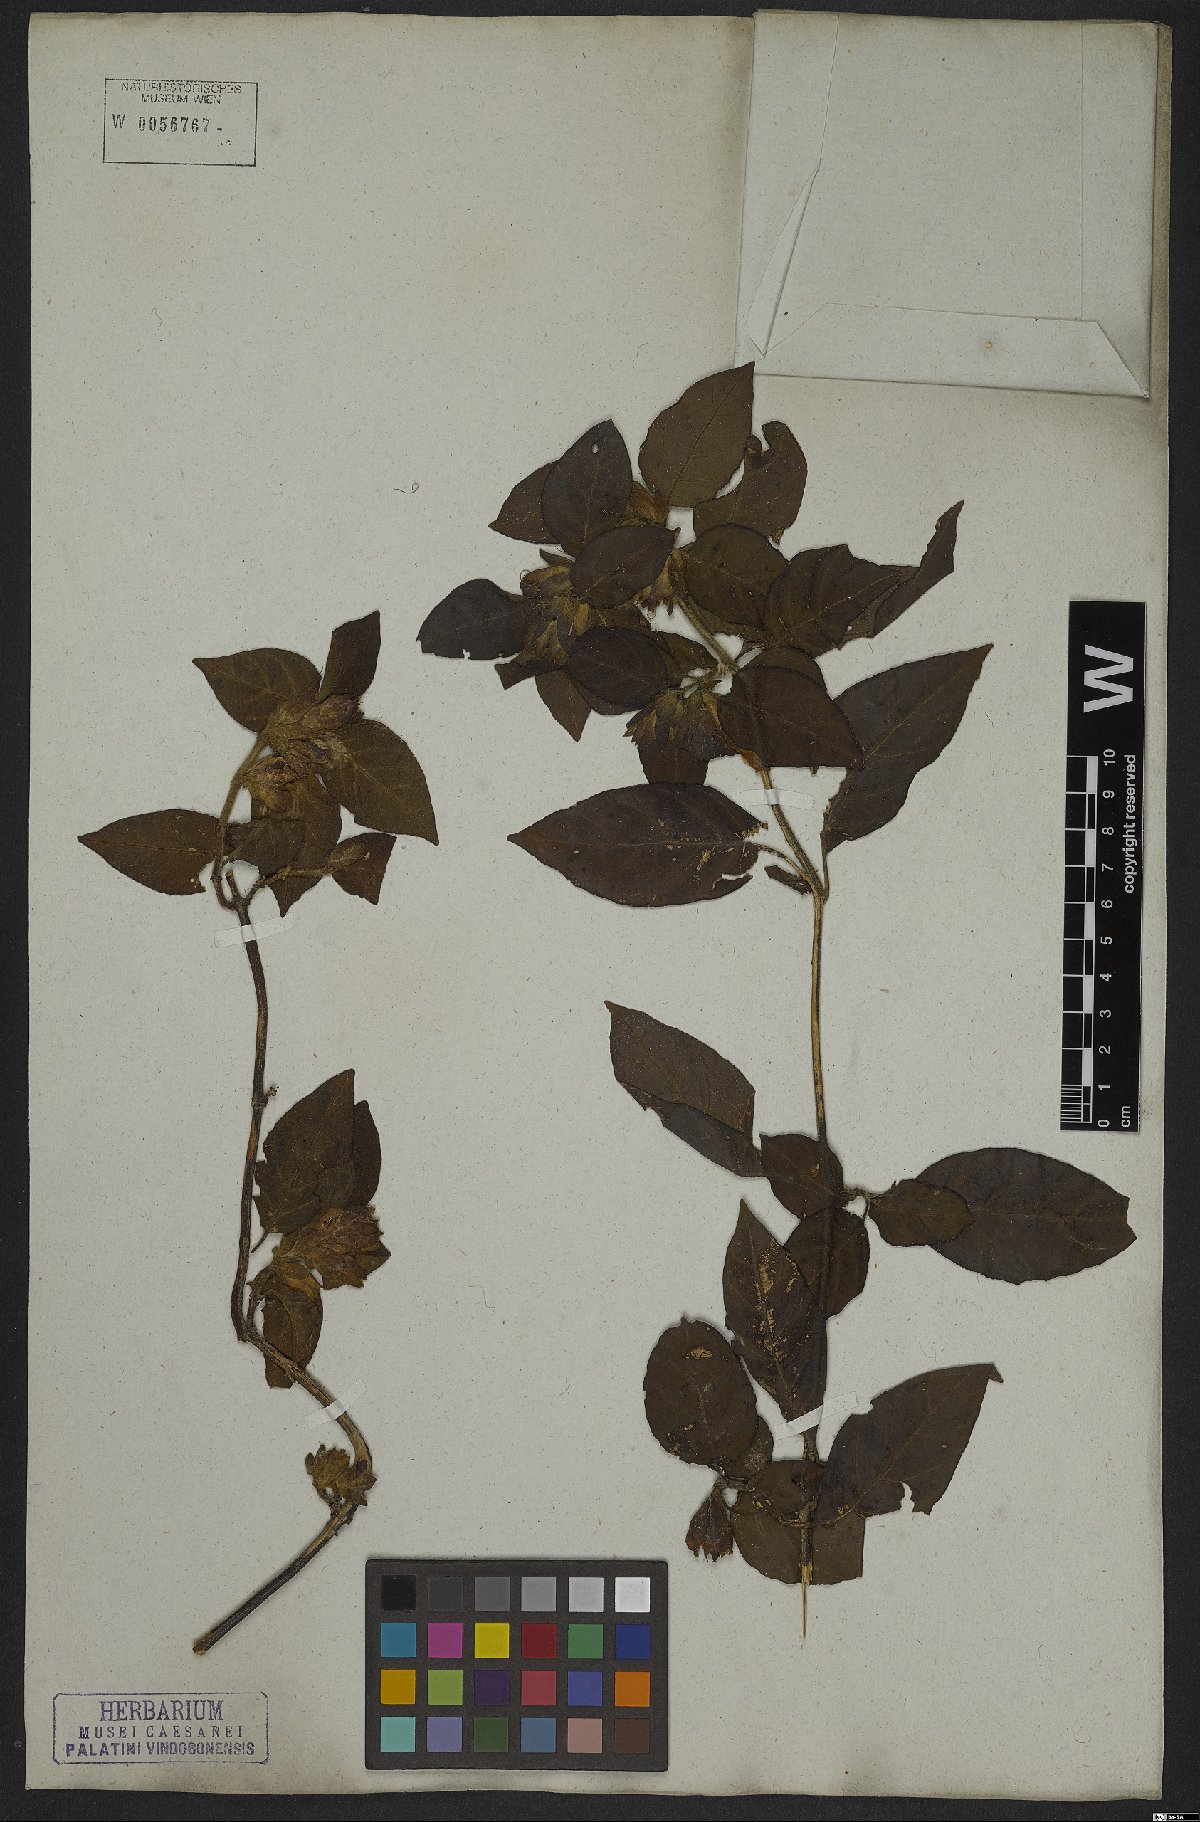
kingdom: Plantae
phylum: Tracheophyta
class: Magnoliopsida
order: Lamiales
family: Acanthaceae
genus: Justicia
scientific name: Justicia cydoniifolia
